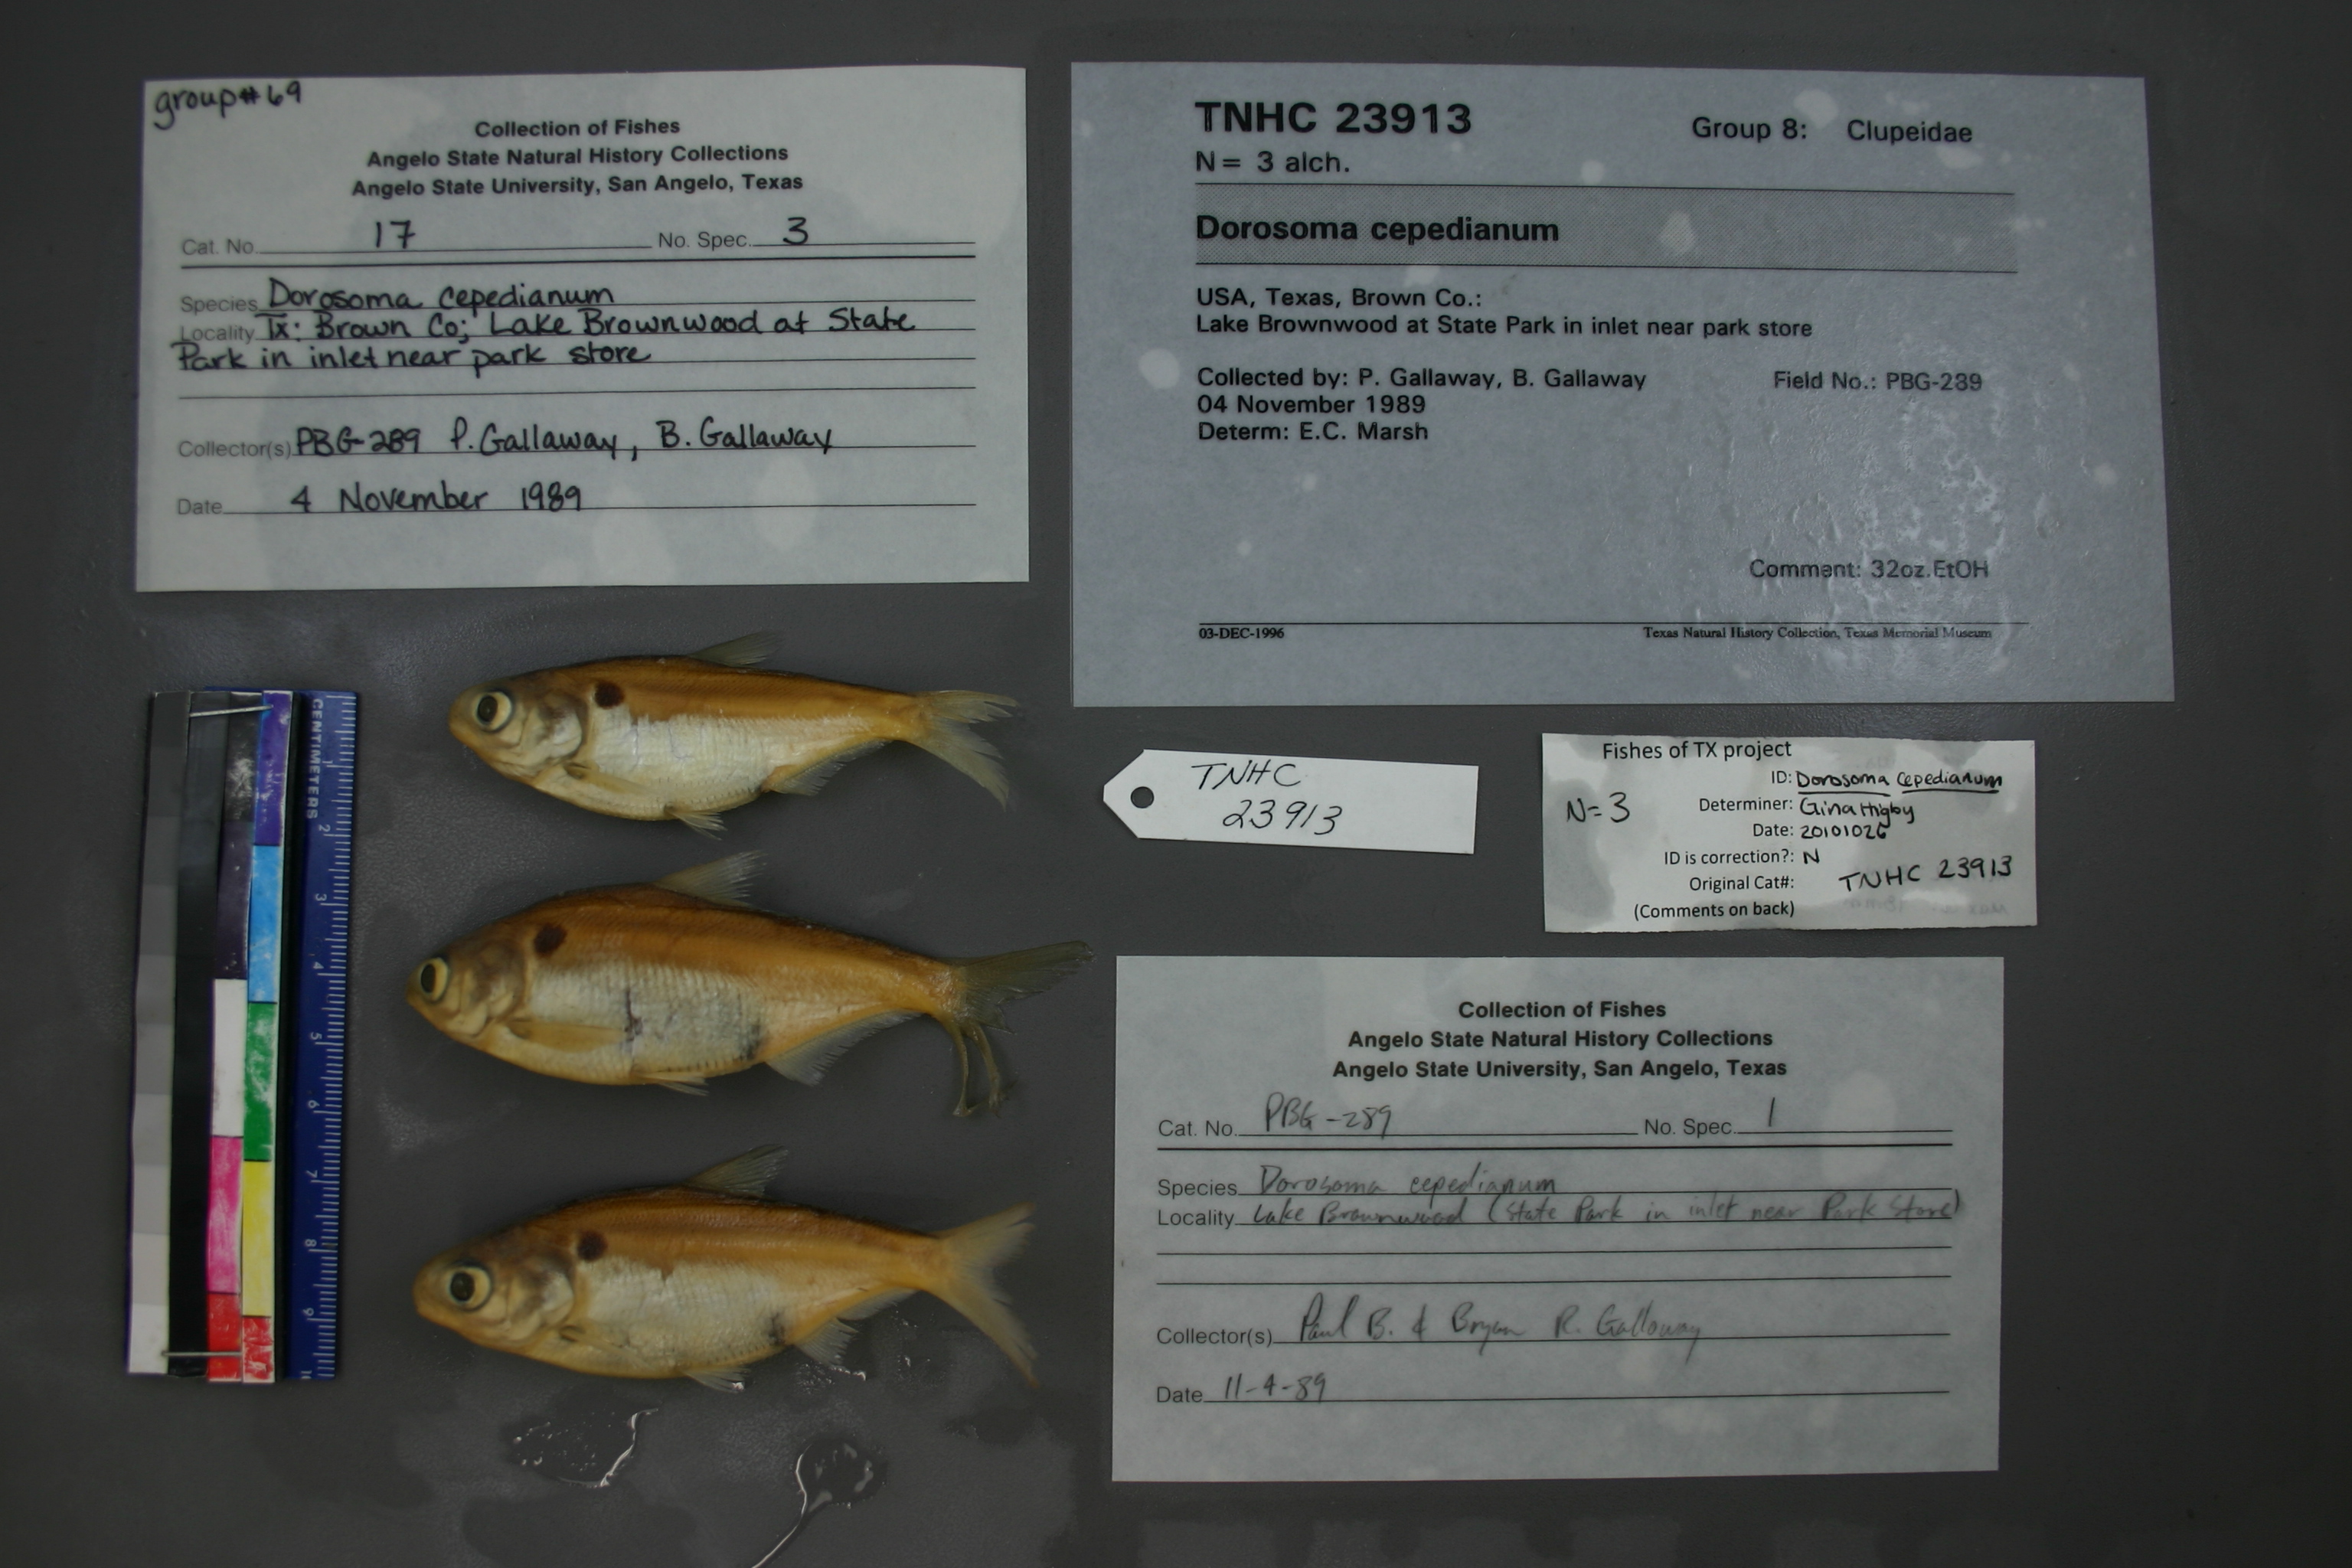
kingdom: Animalia
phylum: Chordata
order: Clupeiformes
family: Clupeidae
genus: Dorosoma
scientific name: Dorosoma cepedianum
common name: Gizzard shad
